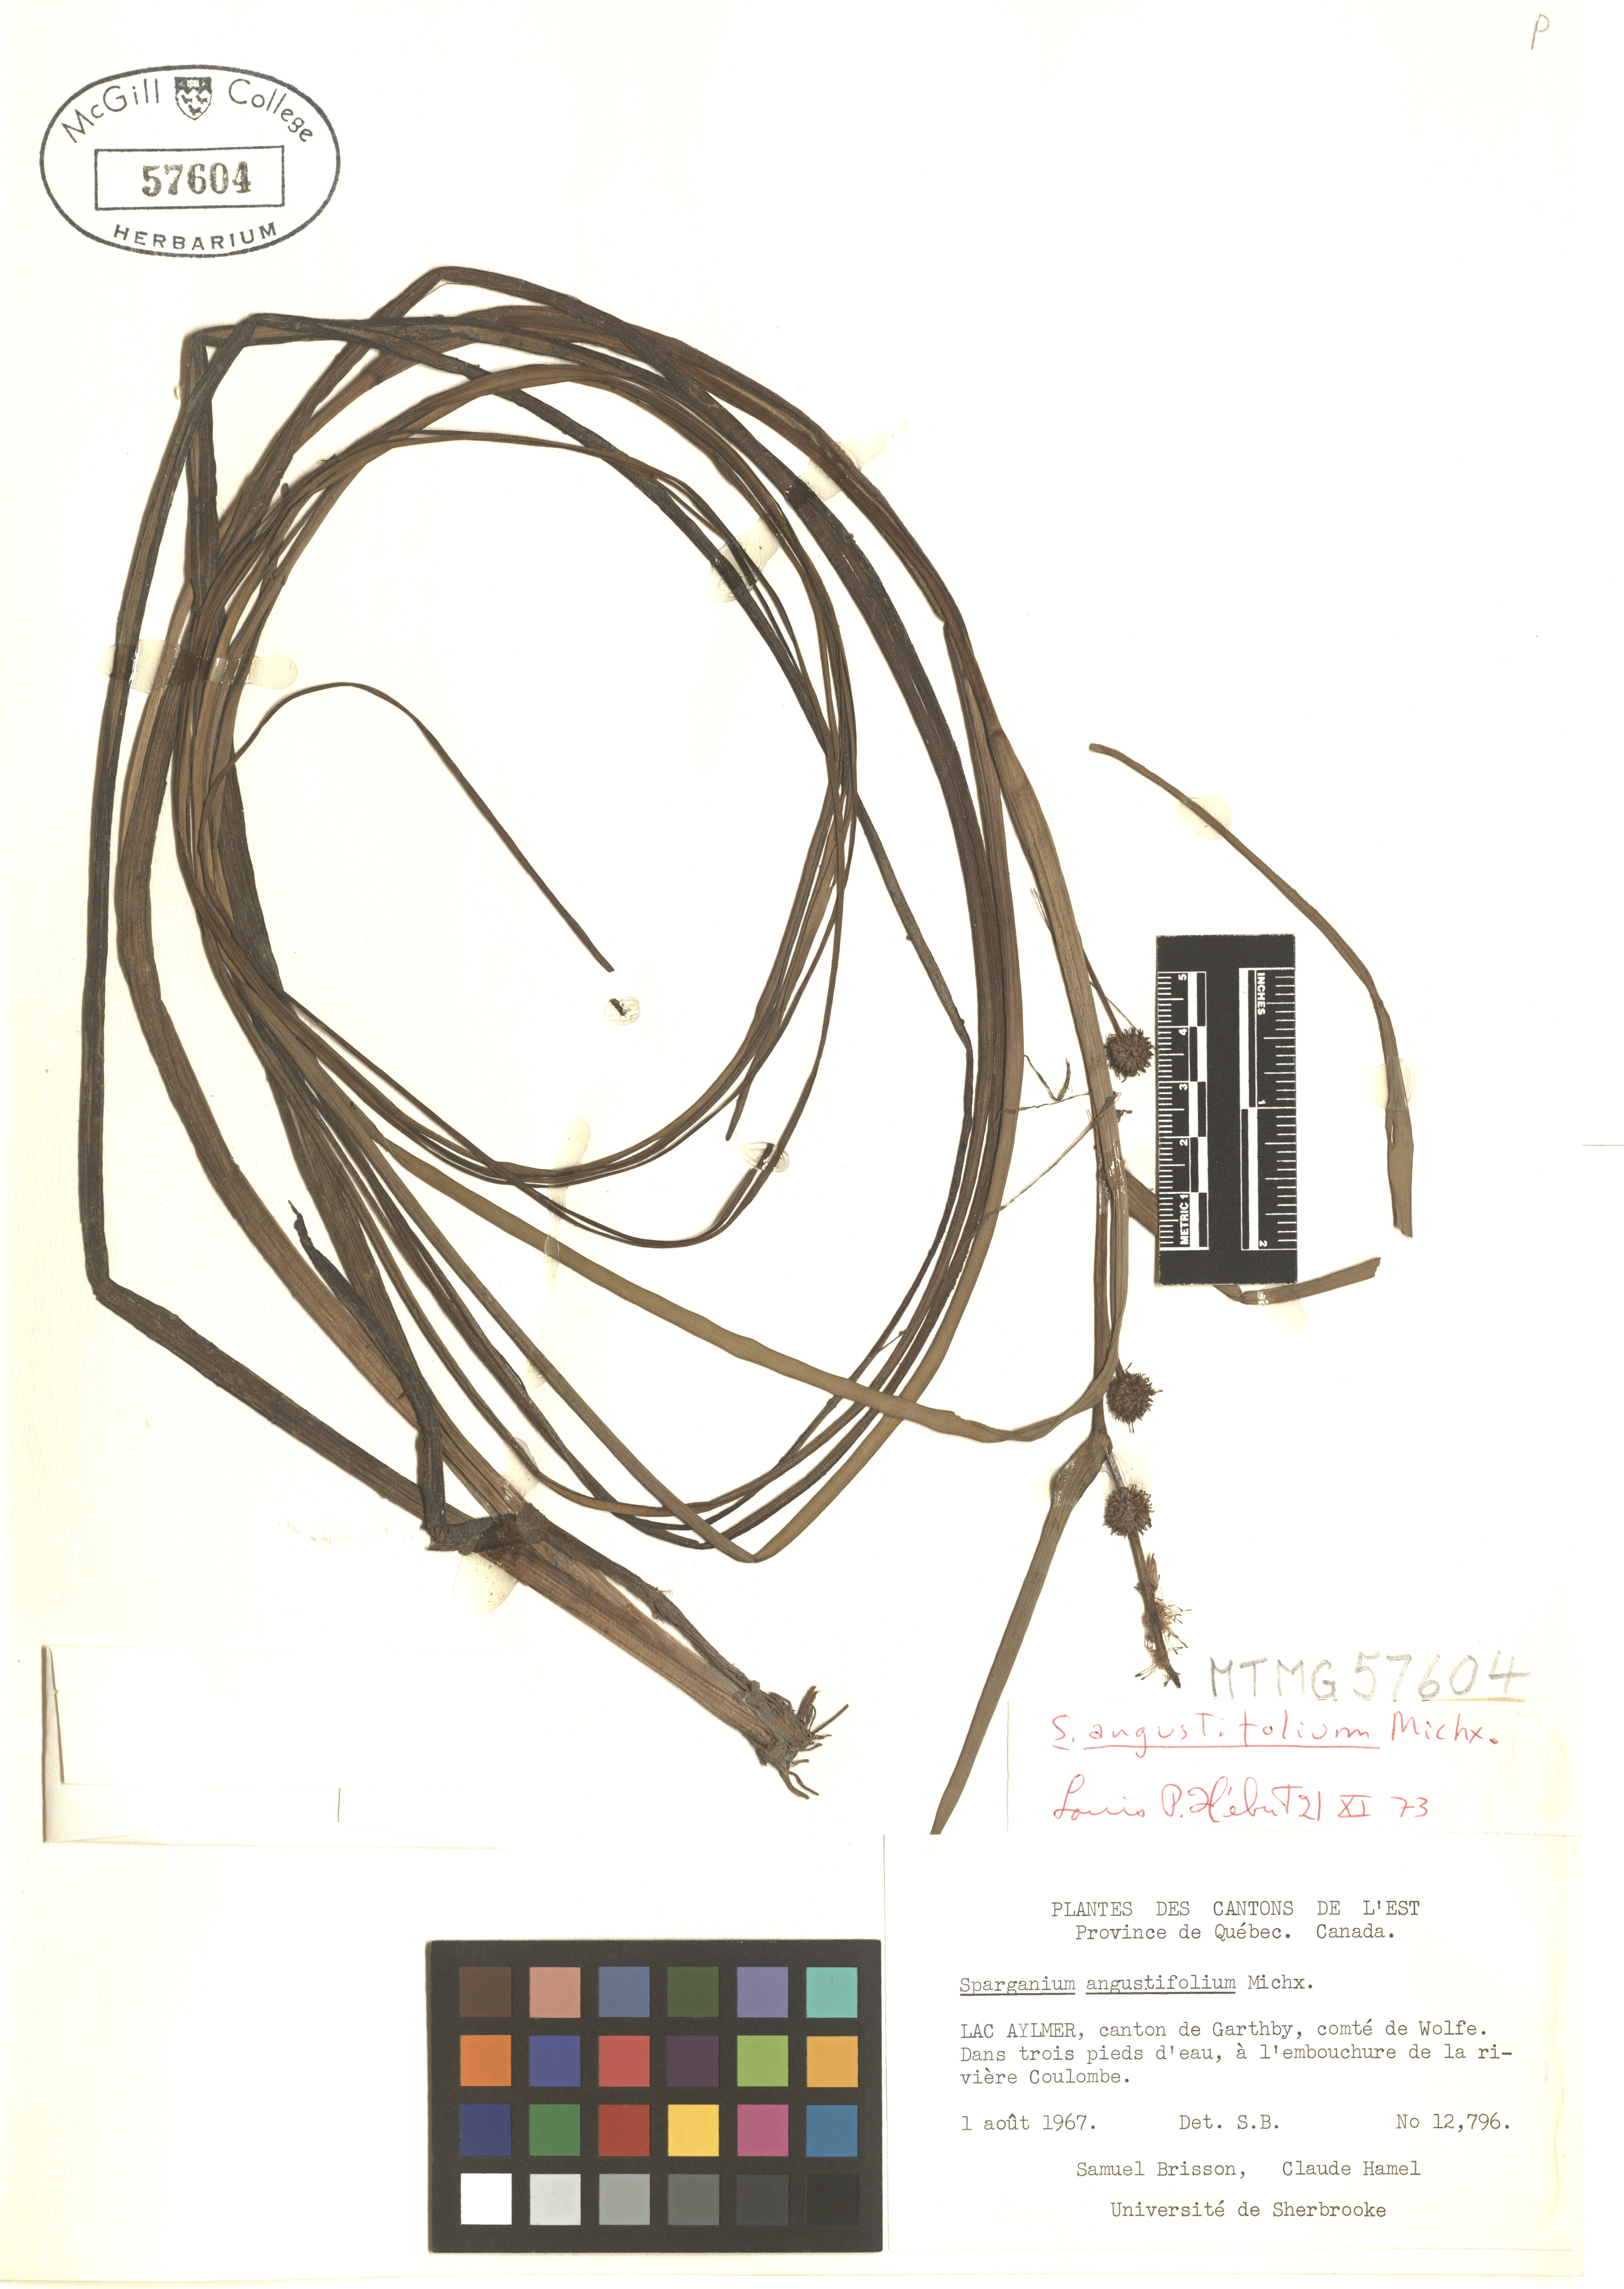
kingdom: Plantae
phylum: Tracheophyta
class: Liliopsida
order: Poales
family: Typhaceae
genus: Sparganium
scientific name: Sparganium angustifolium
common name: Floating bur-reed
